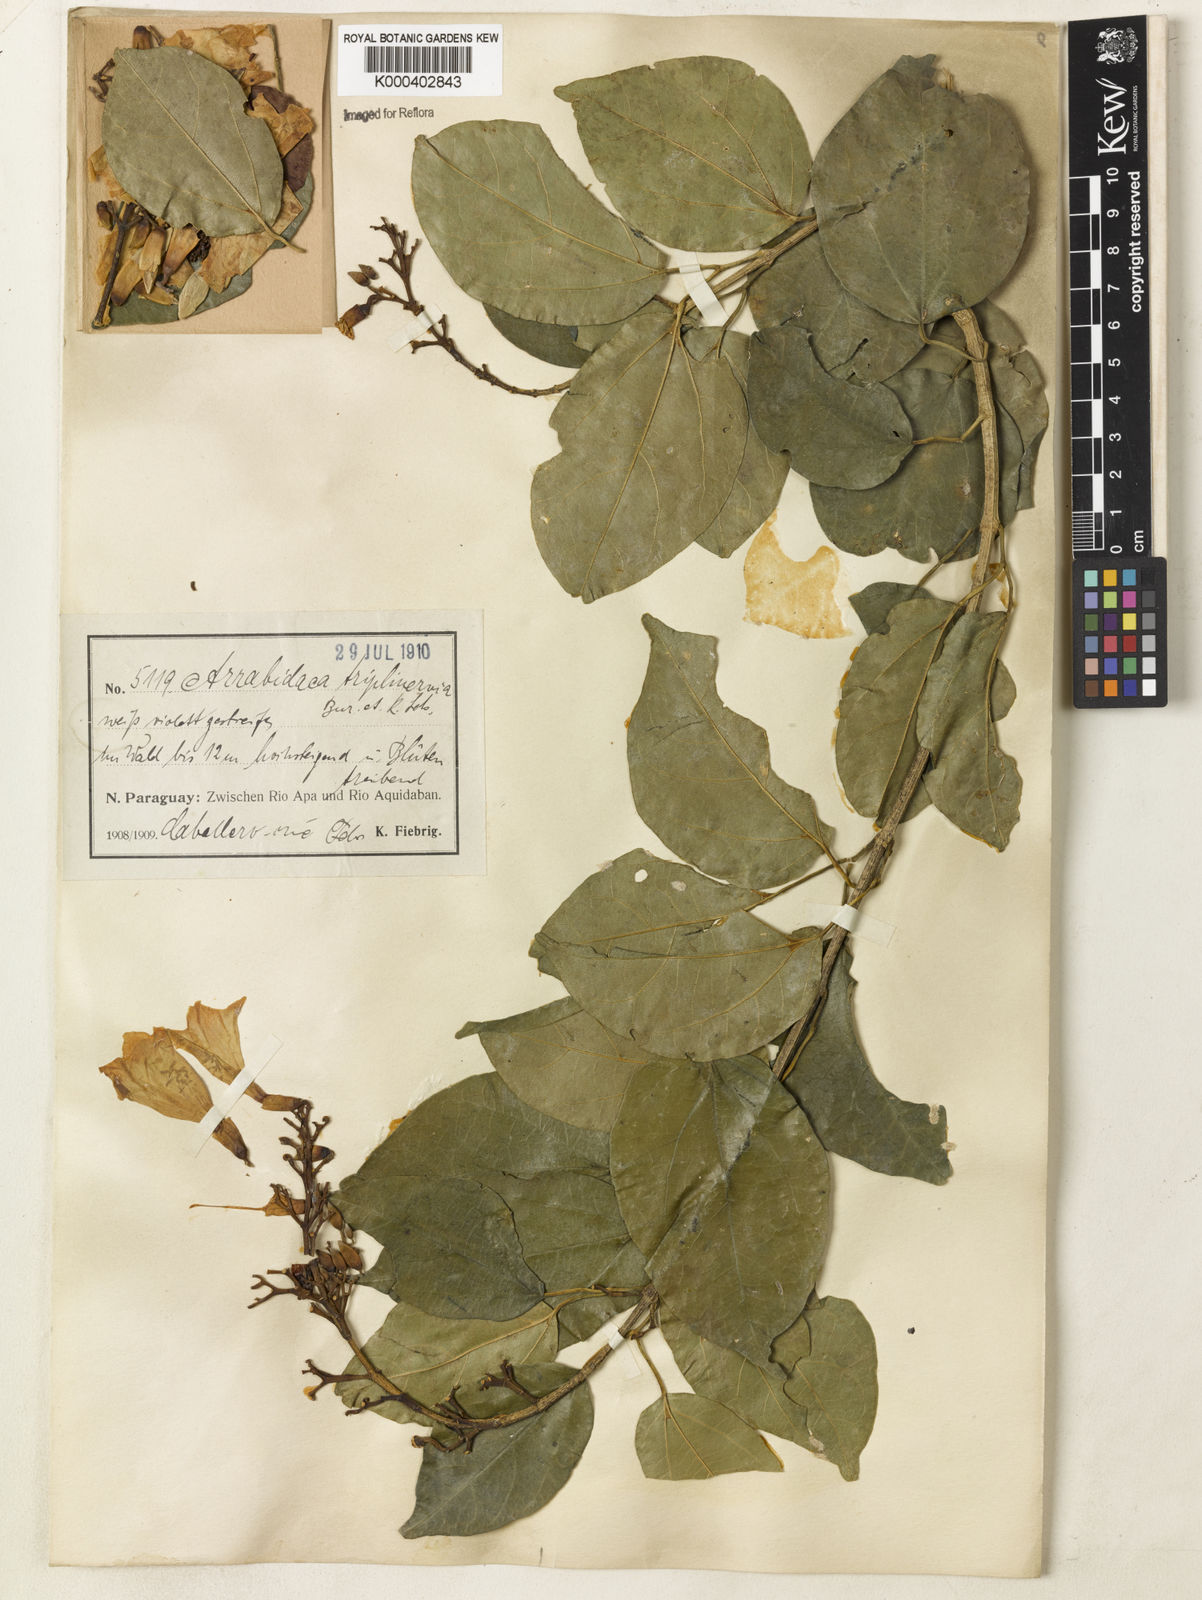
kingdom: Plantae
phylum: Tracheophyta
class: Magnoliopsida
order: Lamiales
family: Bignoniaceae
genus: Fridericia
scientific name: Fridericia triplinervia
